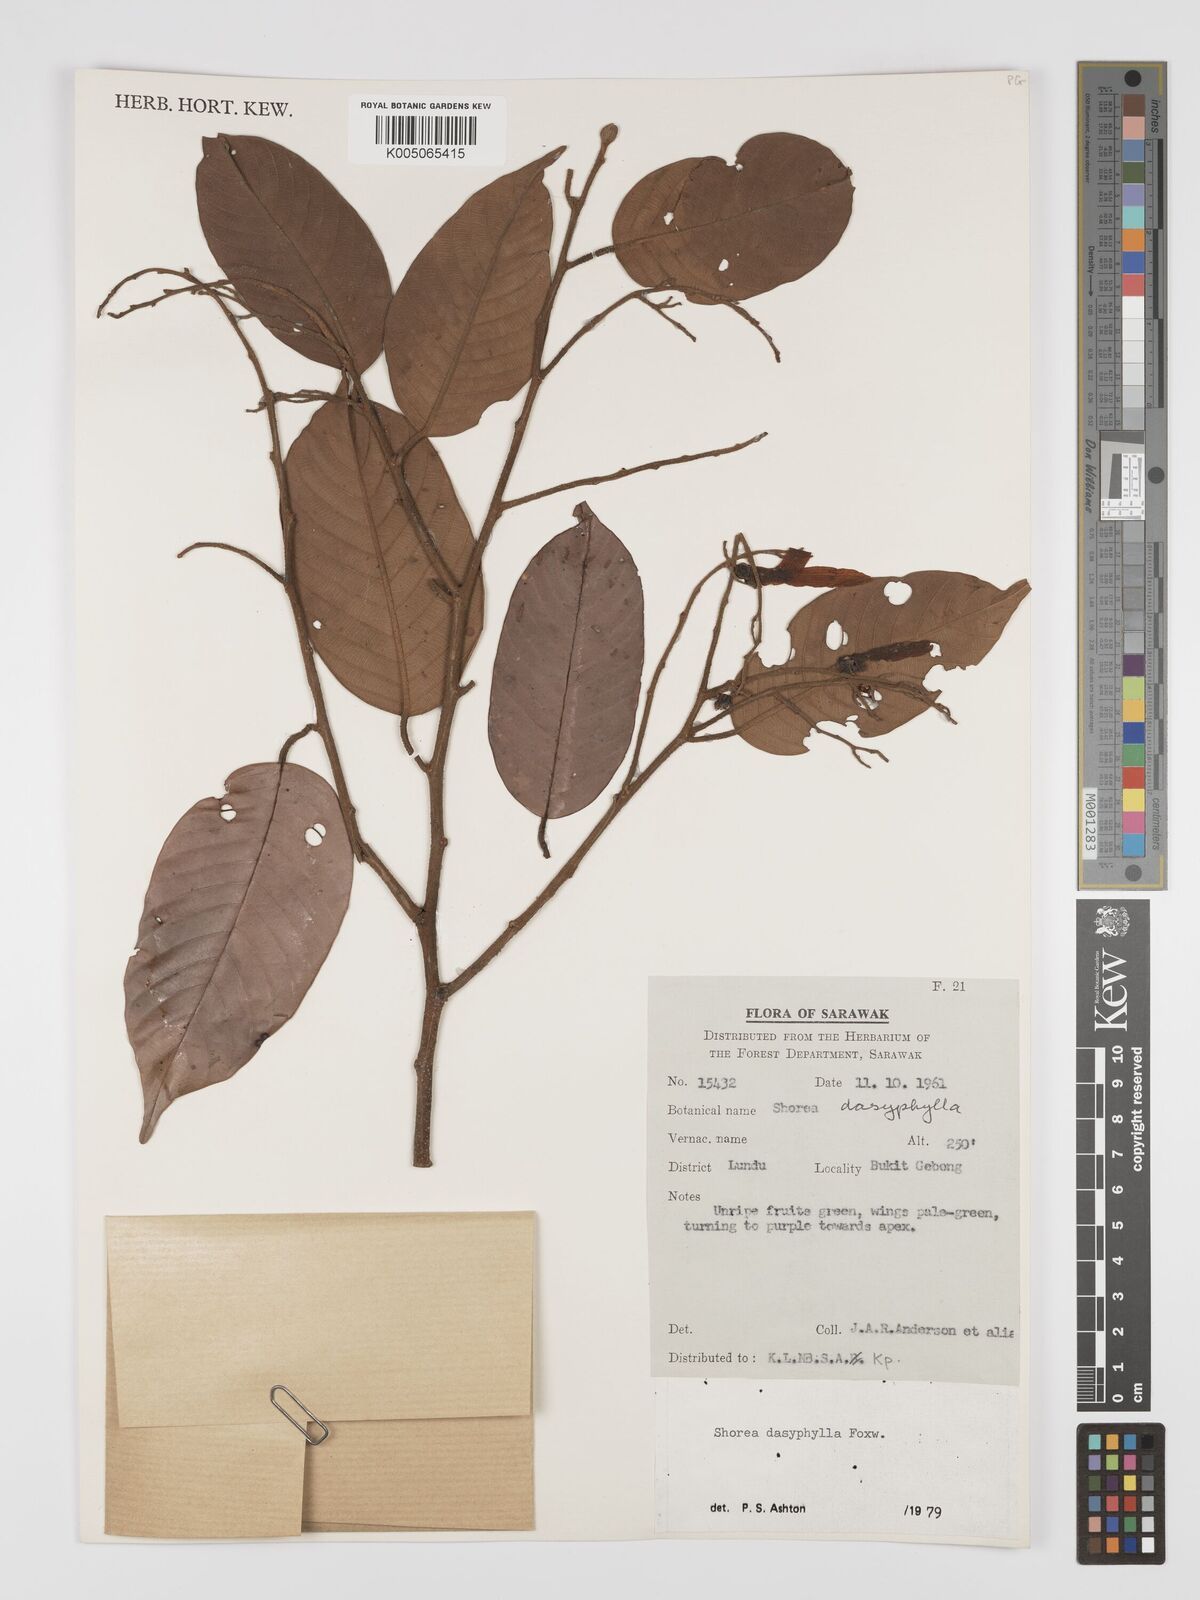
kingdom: Plantae
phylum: Tracheophyta
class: Magnoliopsida
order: Malvales
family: Dipterocarpaceae
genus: Shorea
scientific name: Shorea dasyphylla
